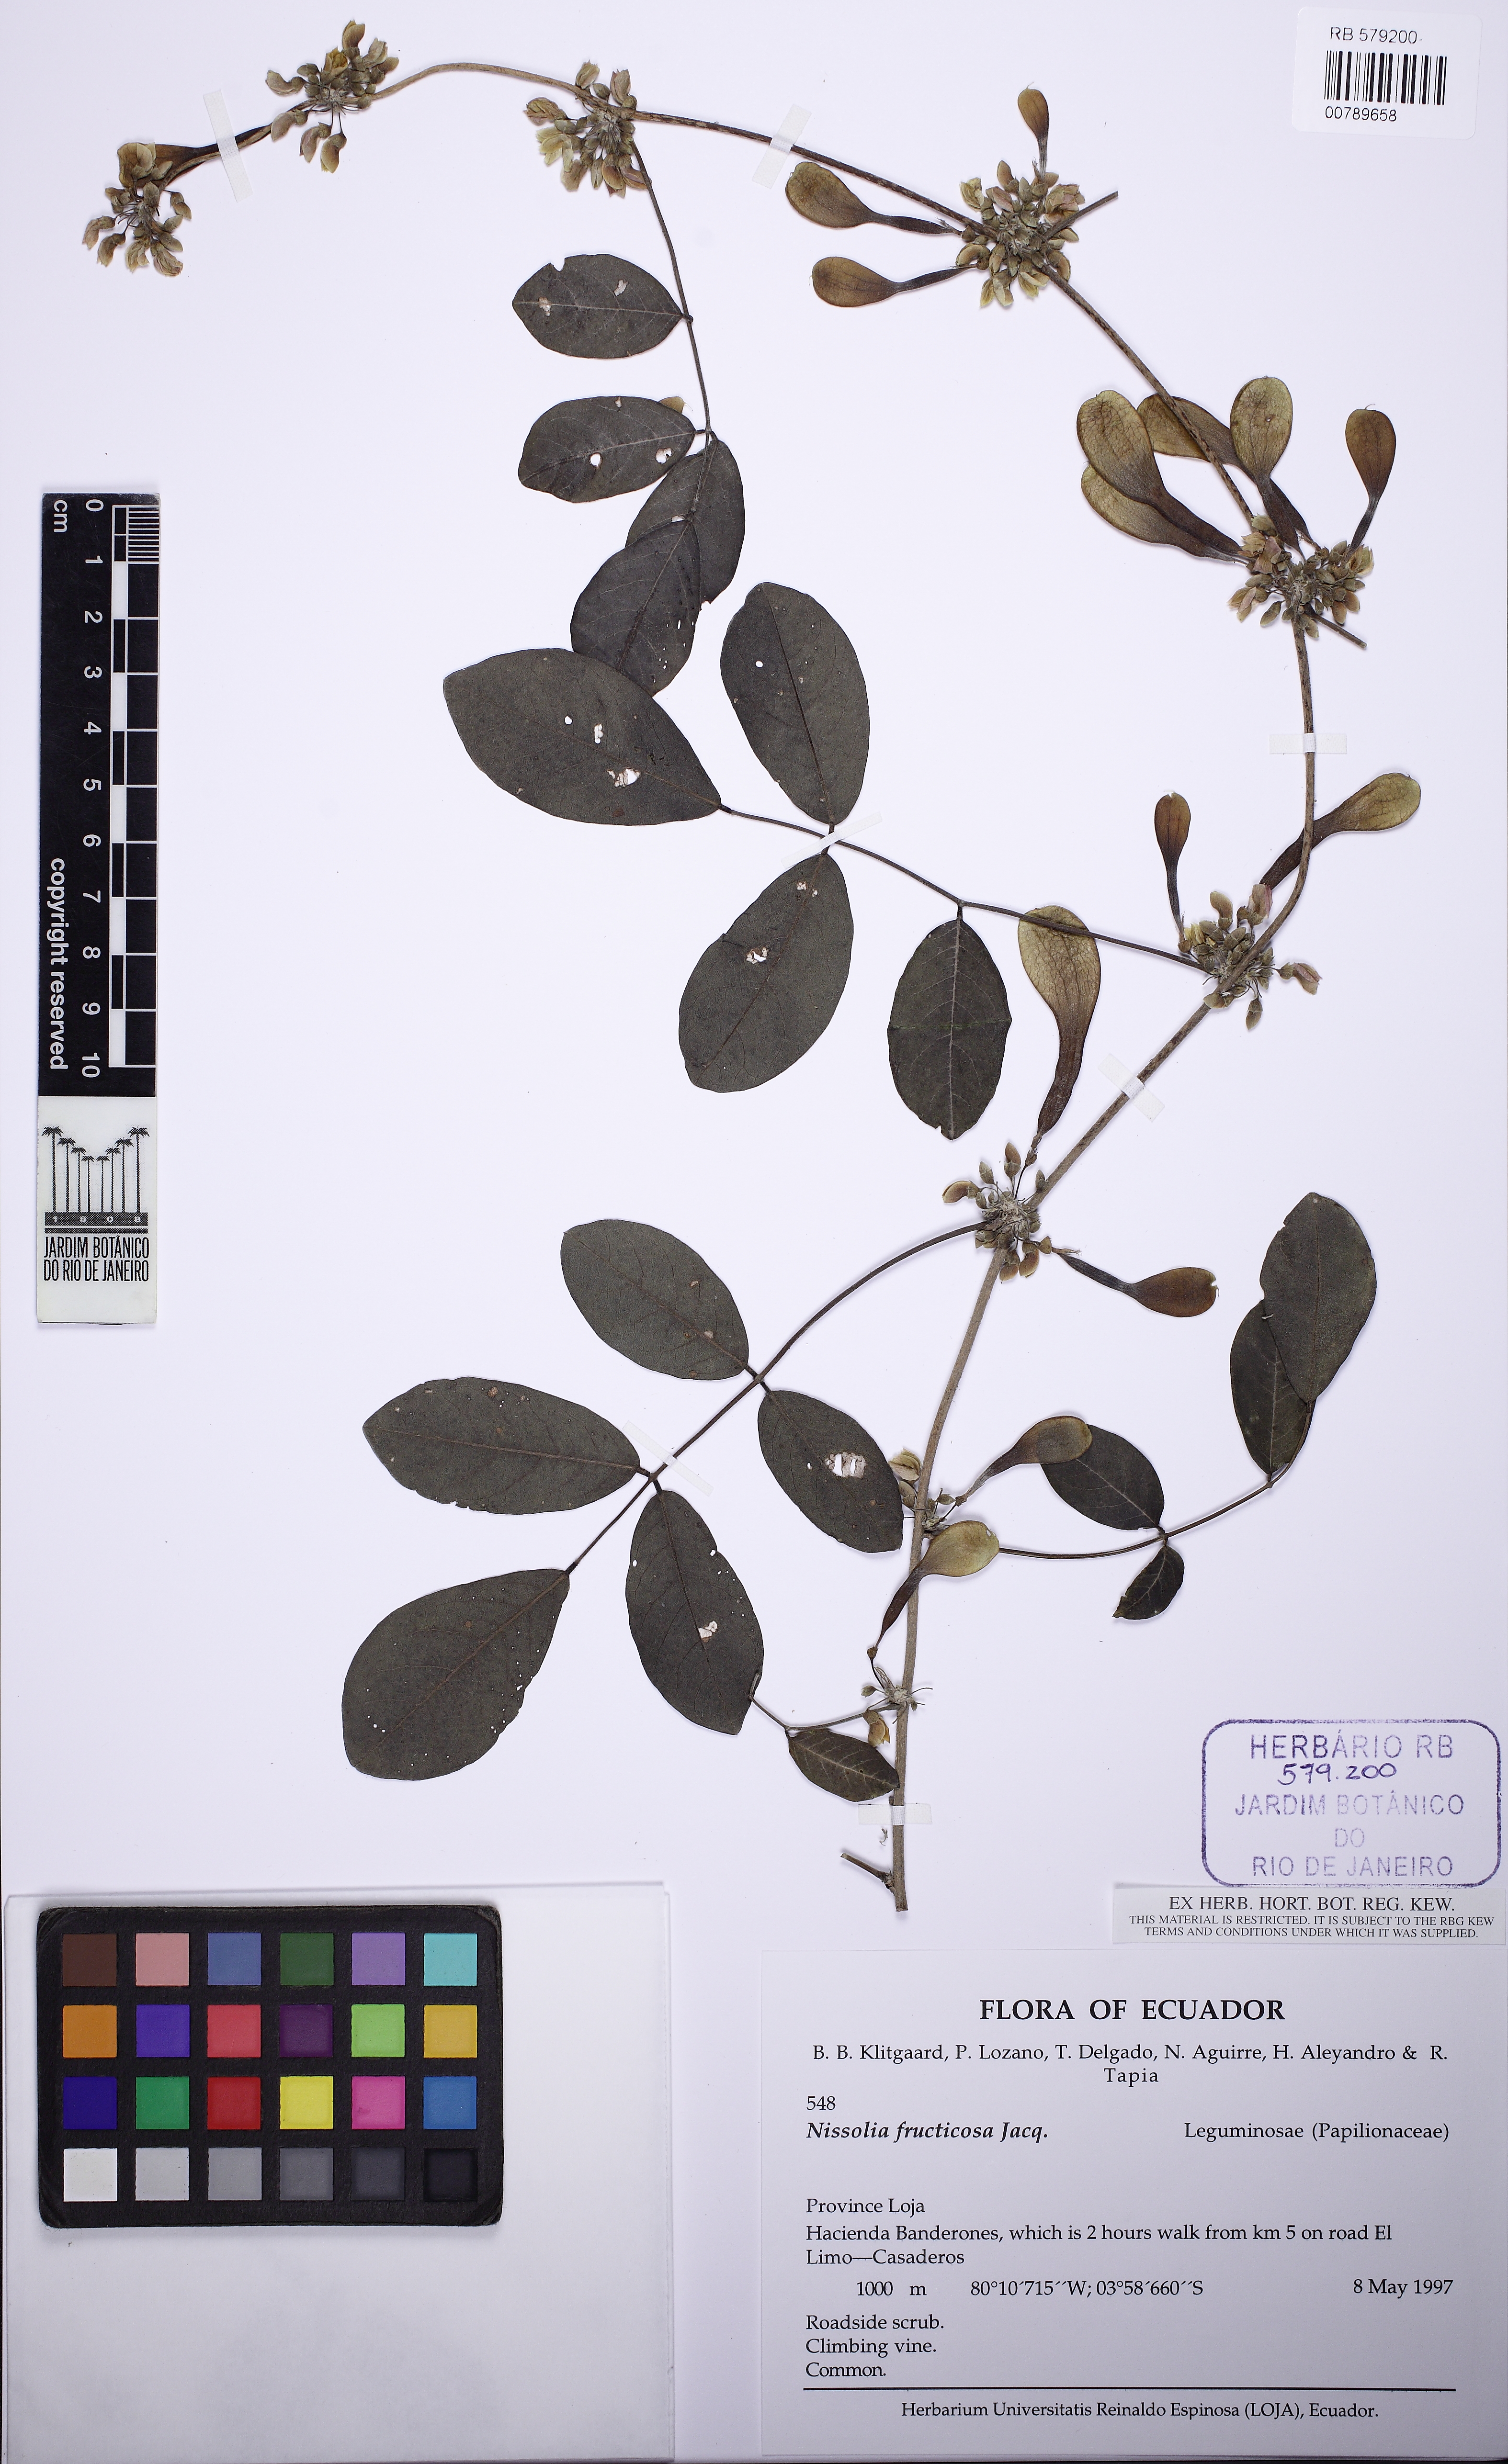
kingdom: Plantae
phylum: Tracheophyta
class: Magnoliopsida
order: Fabales
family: Fabaceae
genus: Nissolia
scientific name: Nissolia fruticosa
